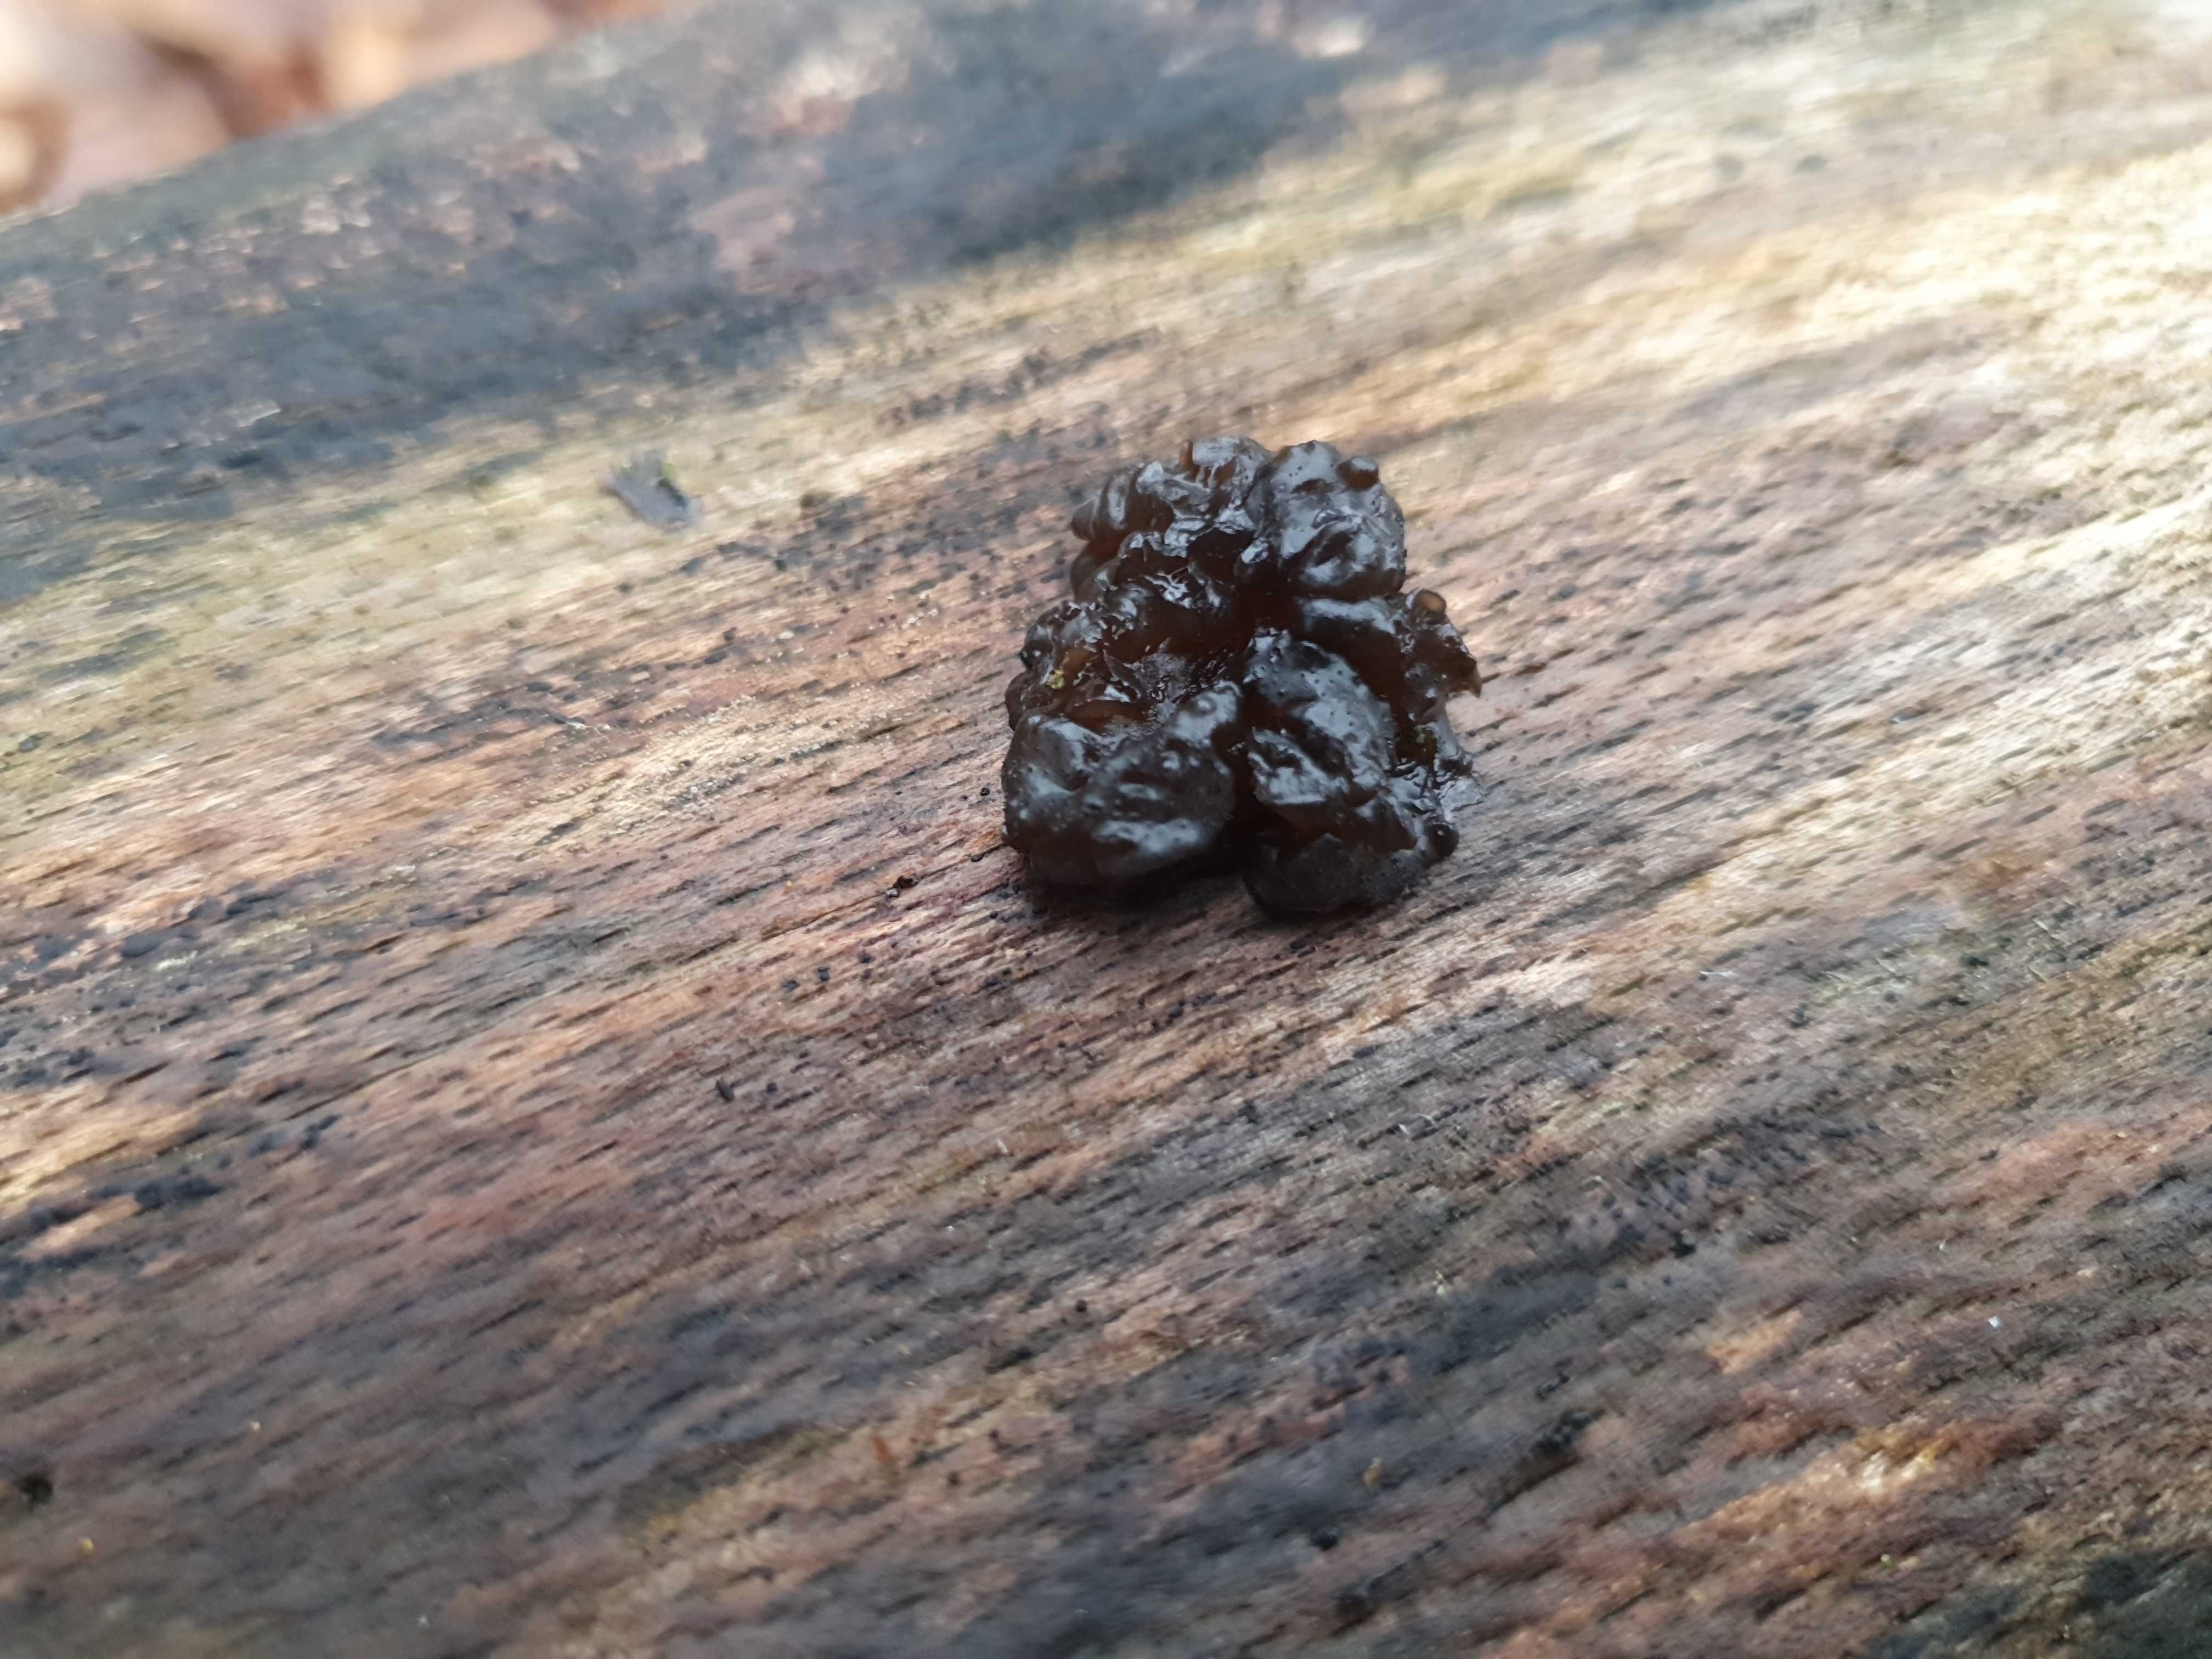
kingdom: Fungi
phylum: Basidiomycota
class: Agaricomycetes
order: Auriculariales
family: Auriculariaceae
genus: Exidia
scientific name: Exidia nigricans
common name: almindelig bævretop
